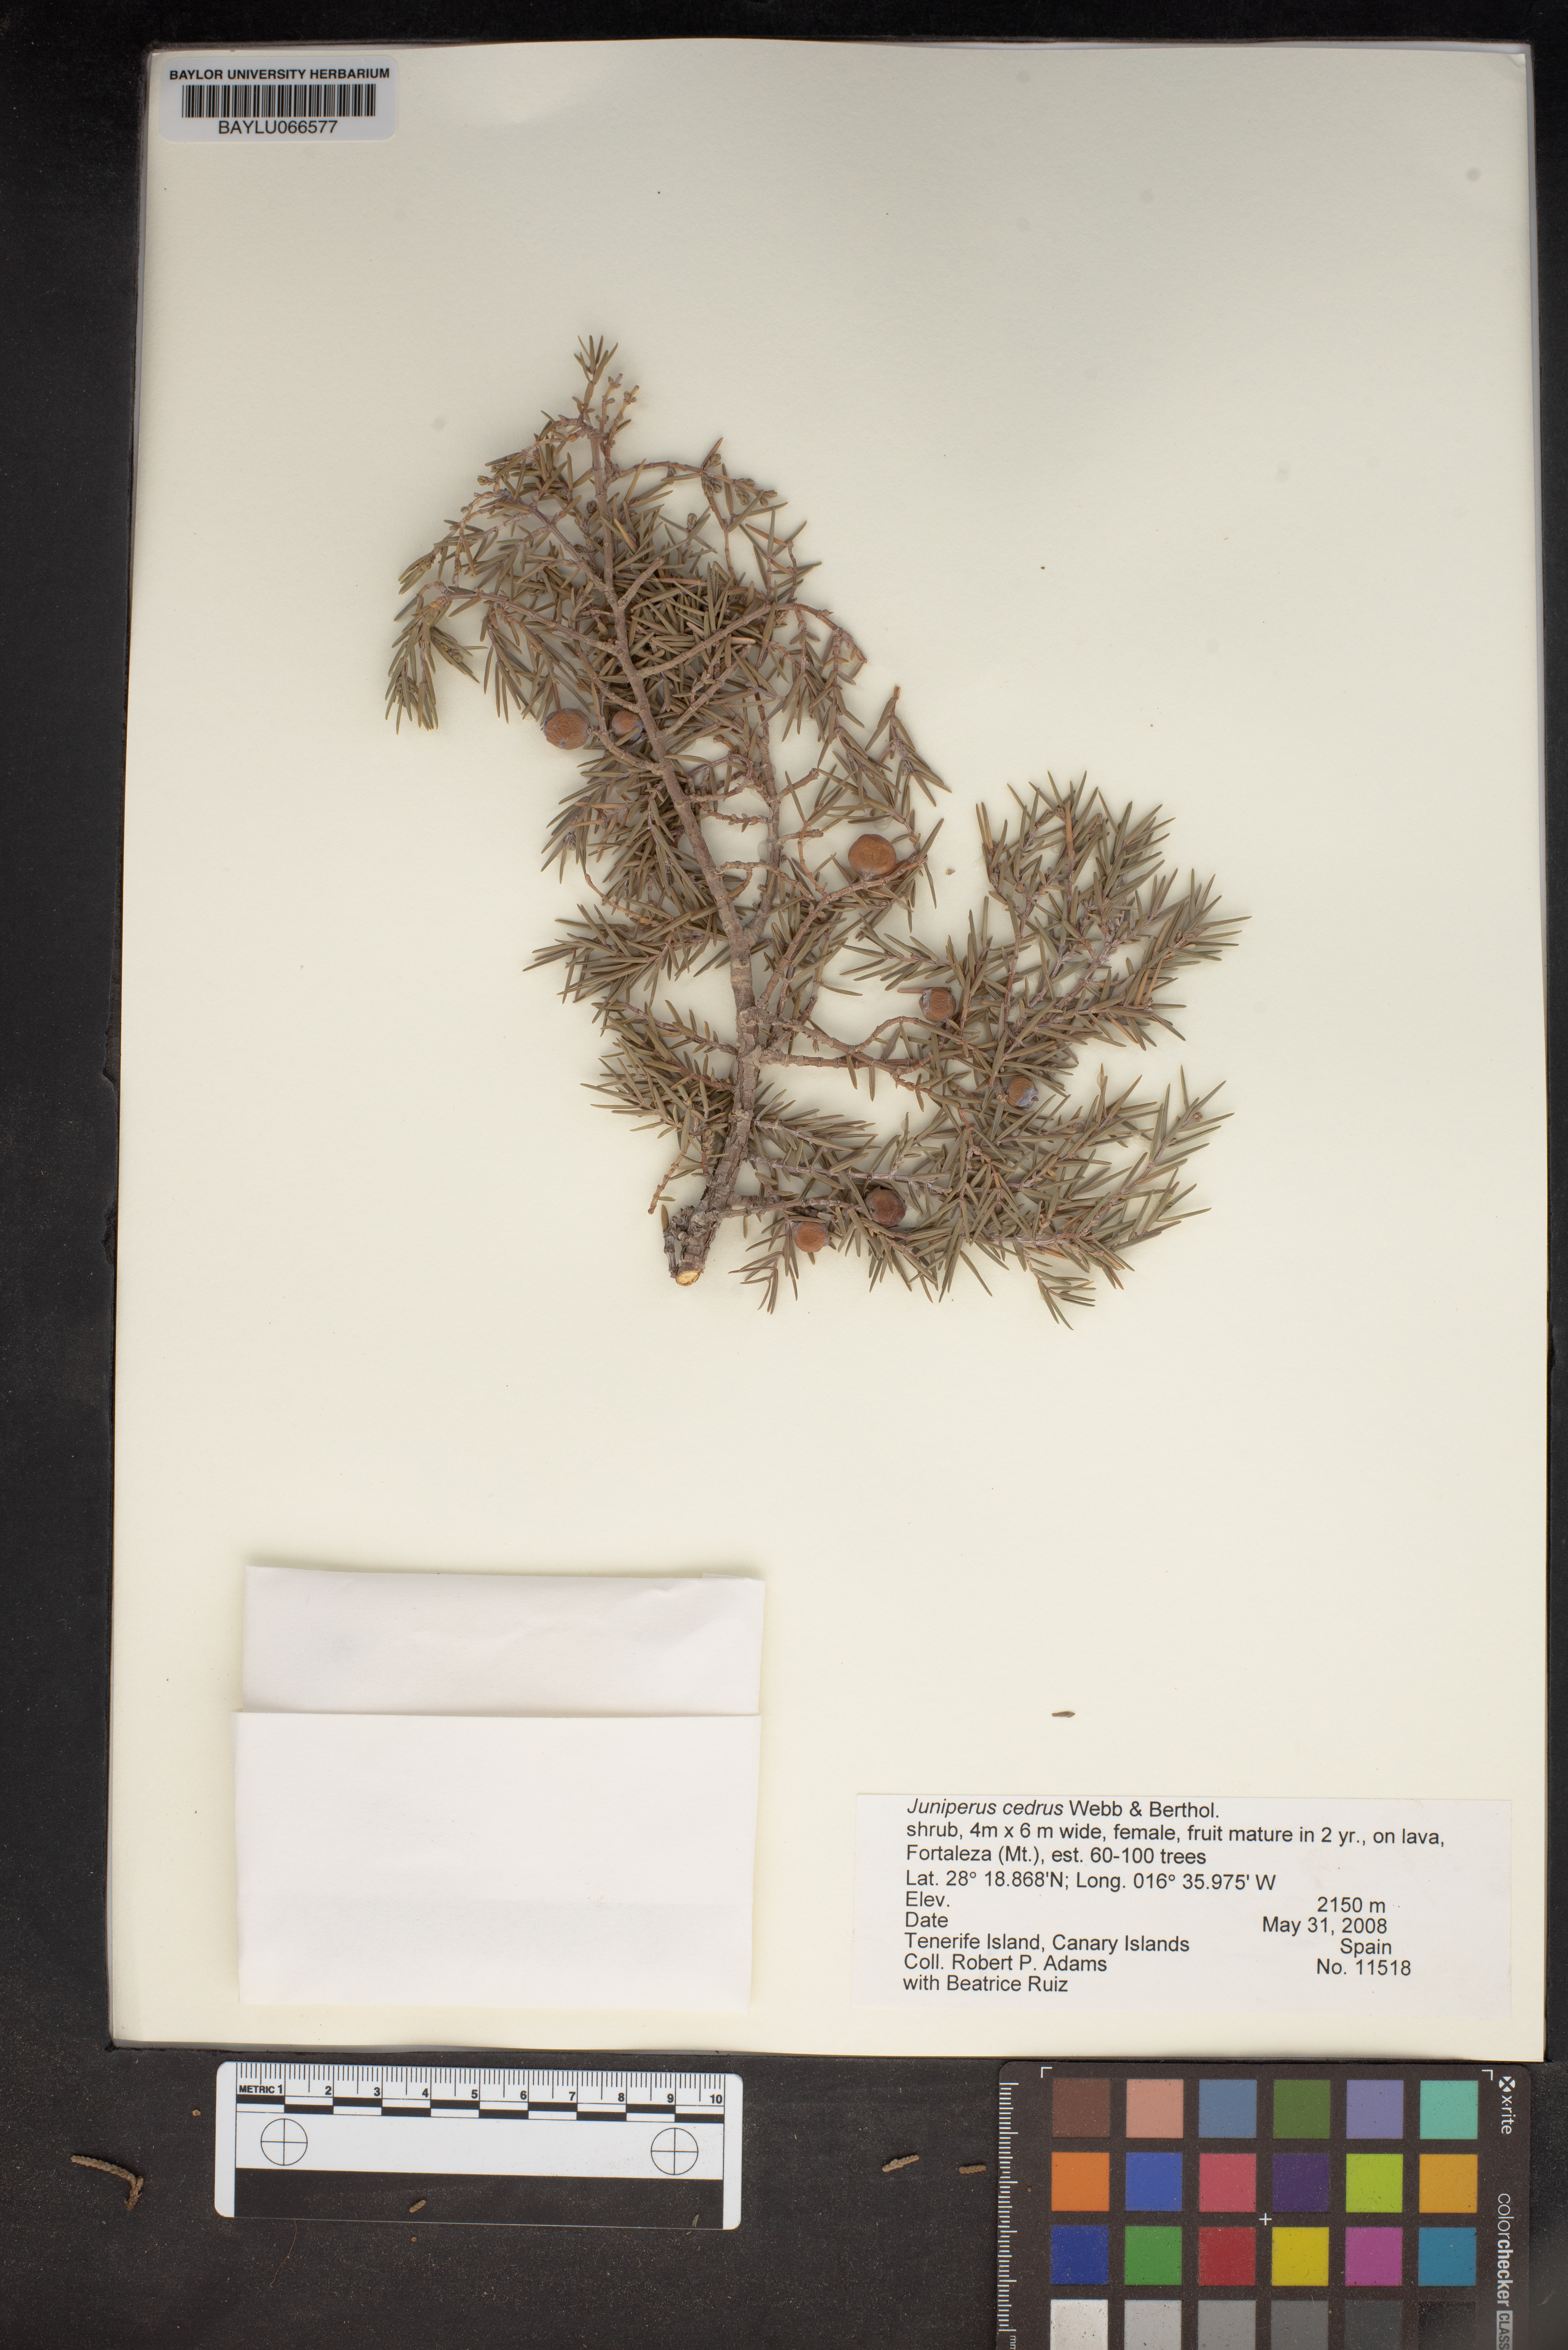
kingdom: Plantae
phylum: Tracheophyta
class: Pinopsida
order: Pinales
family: Cupressaceae
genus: Juniperus
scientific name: Juniperus cedrus
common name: Canary islands juniper
